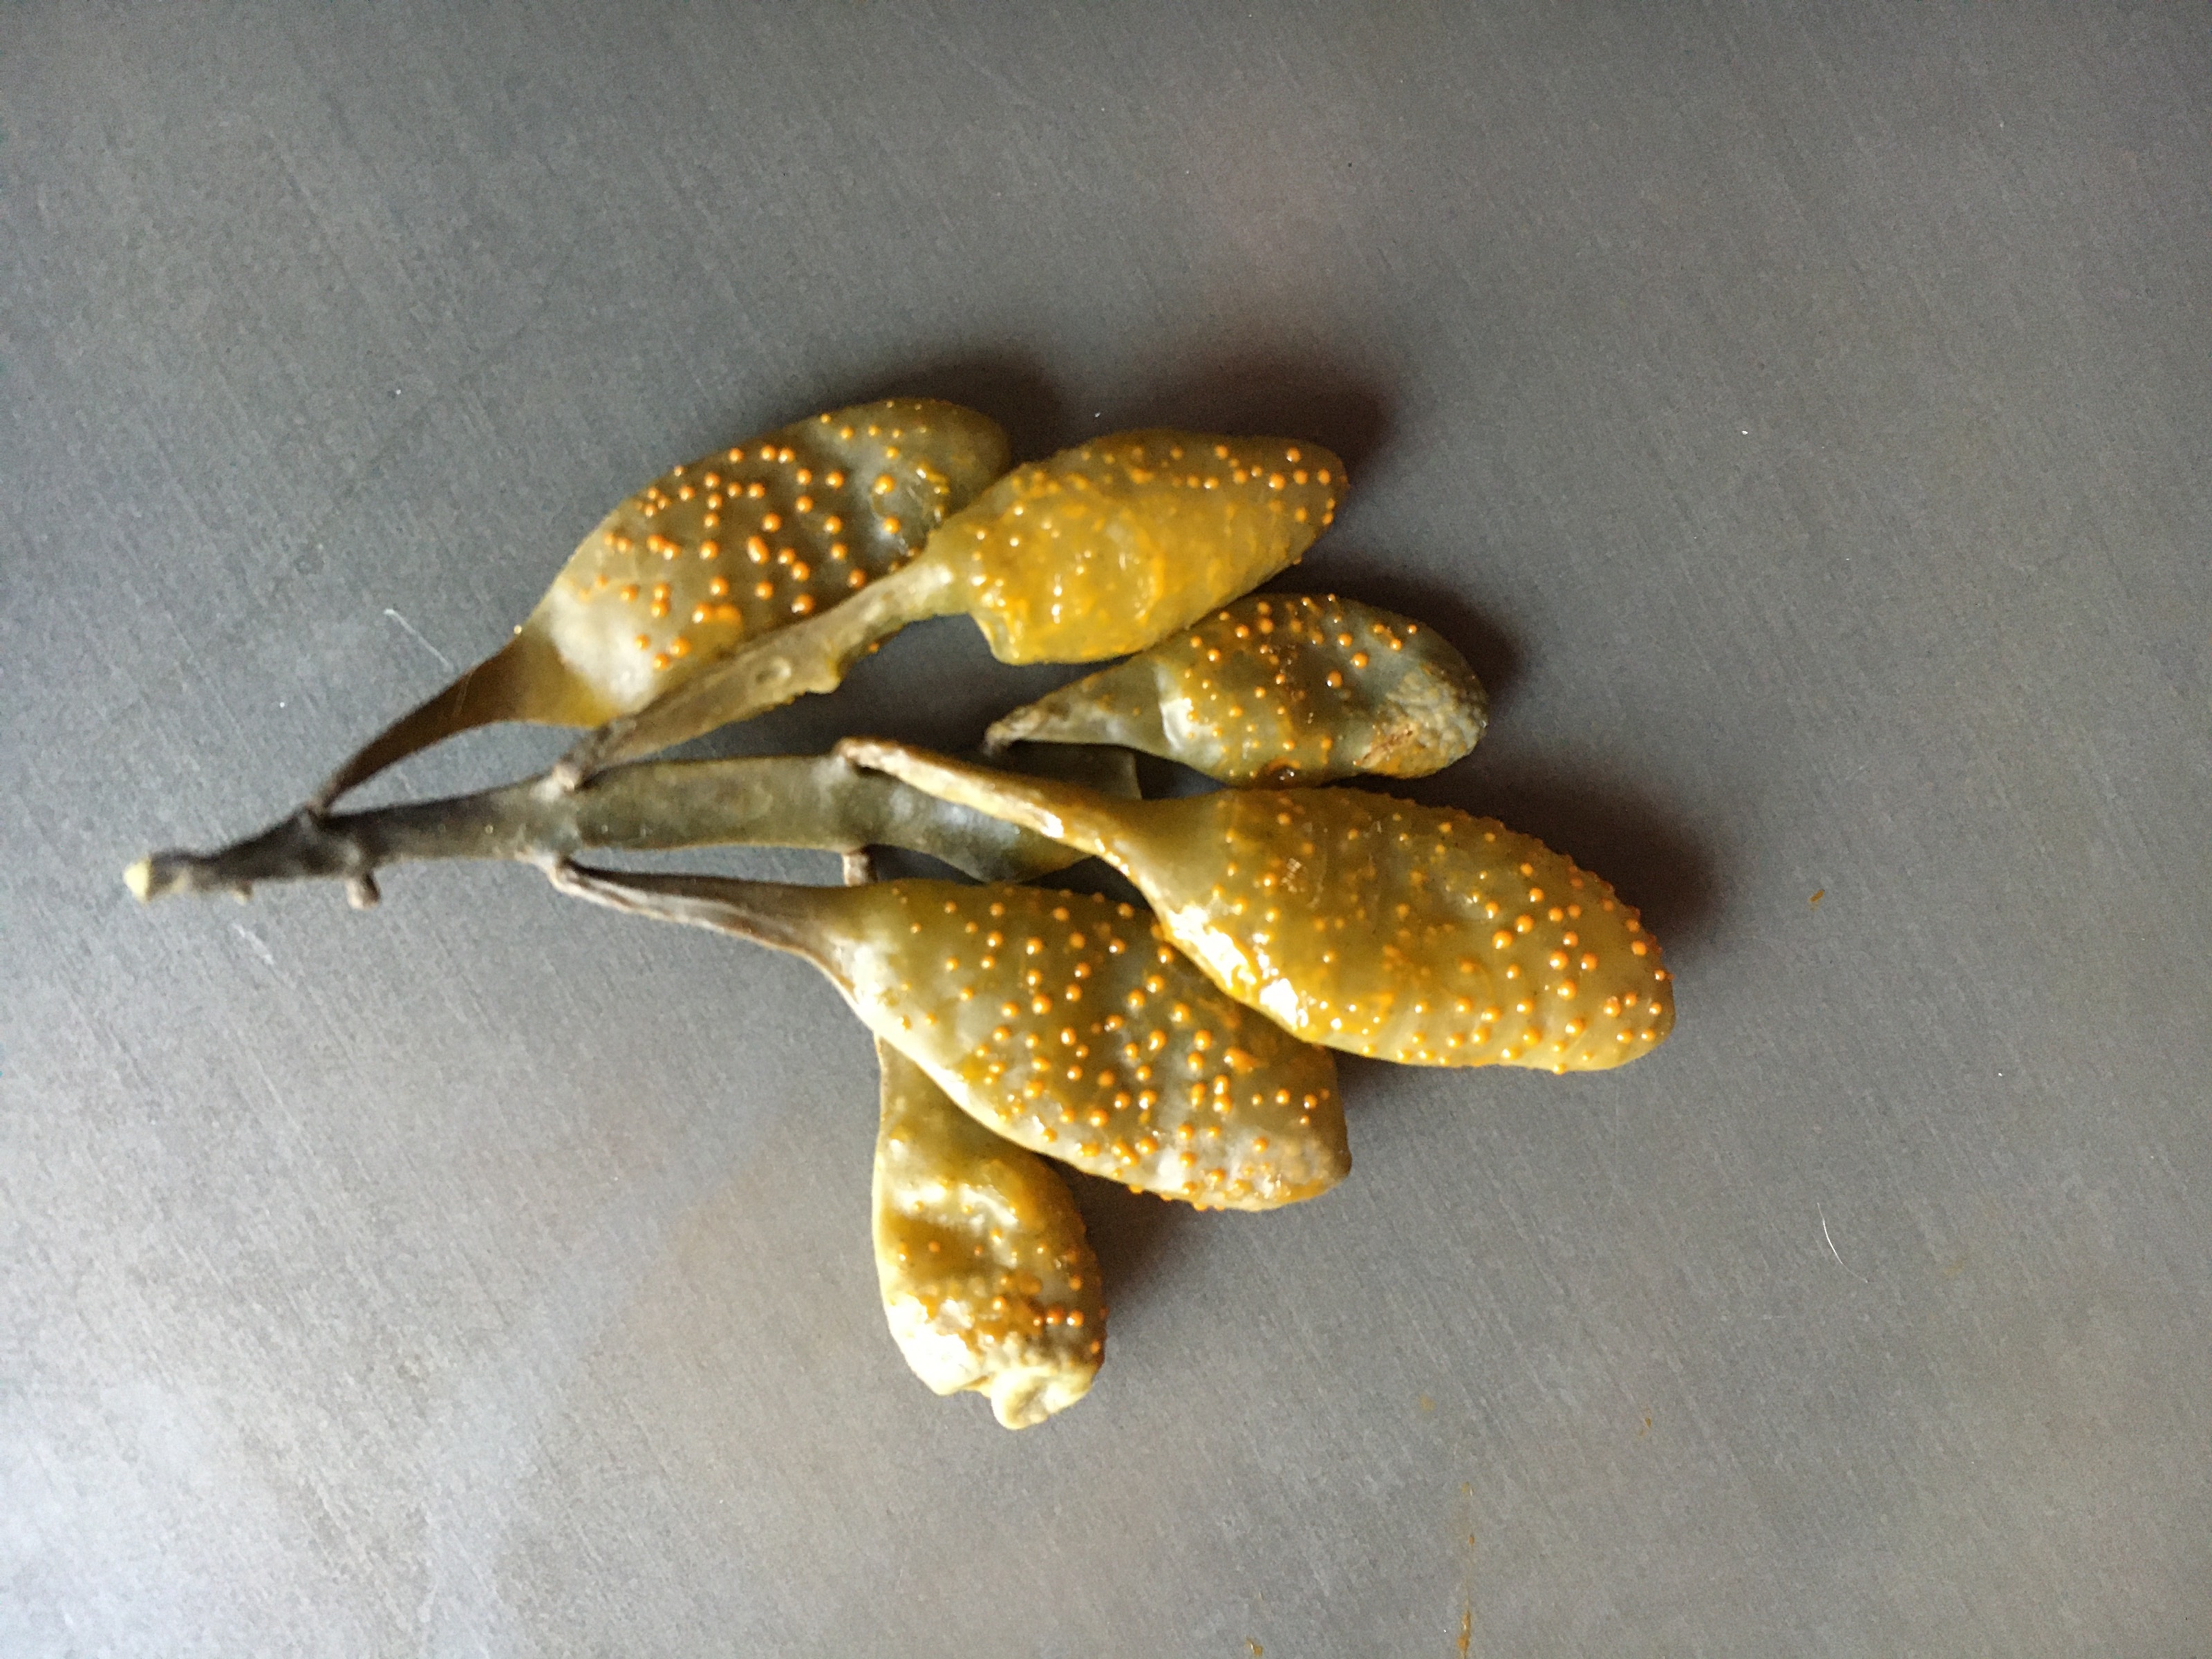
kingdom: Chromista
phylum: Ochrophyta
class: Phaeophyceae
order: Fucales
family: Fucaceae
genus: Ascophyllum
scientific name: Ascophyllum nodosum
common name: Rockweed
